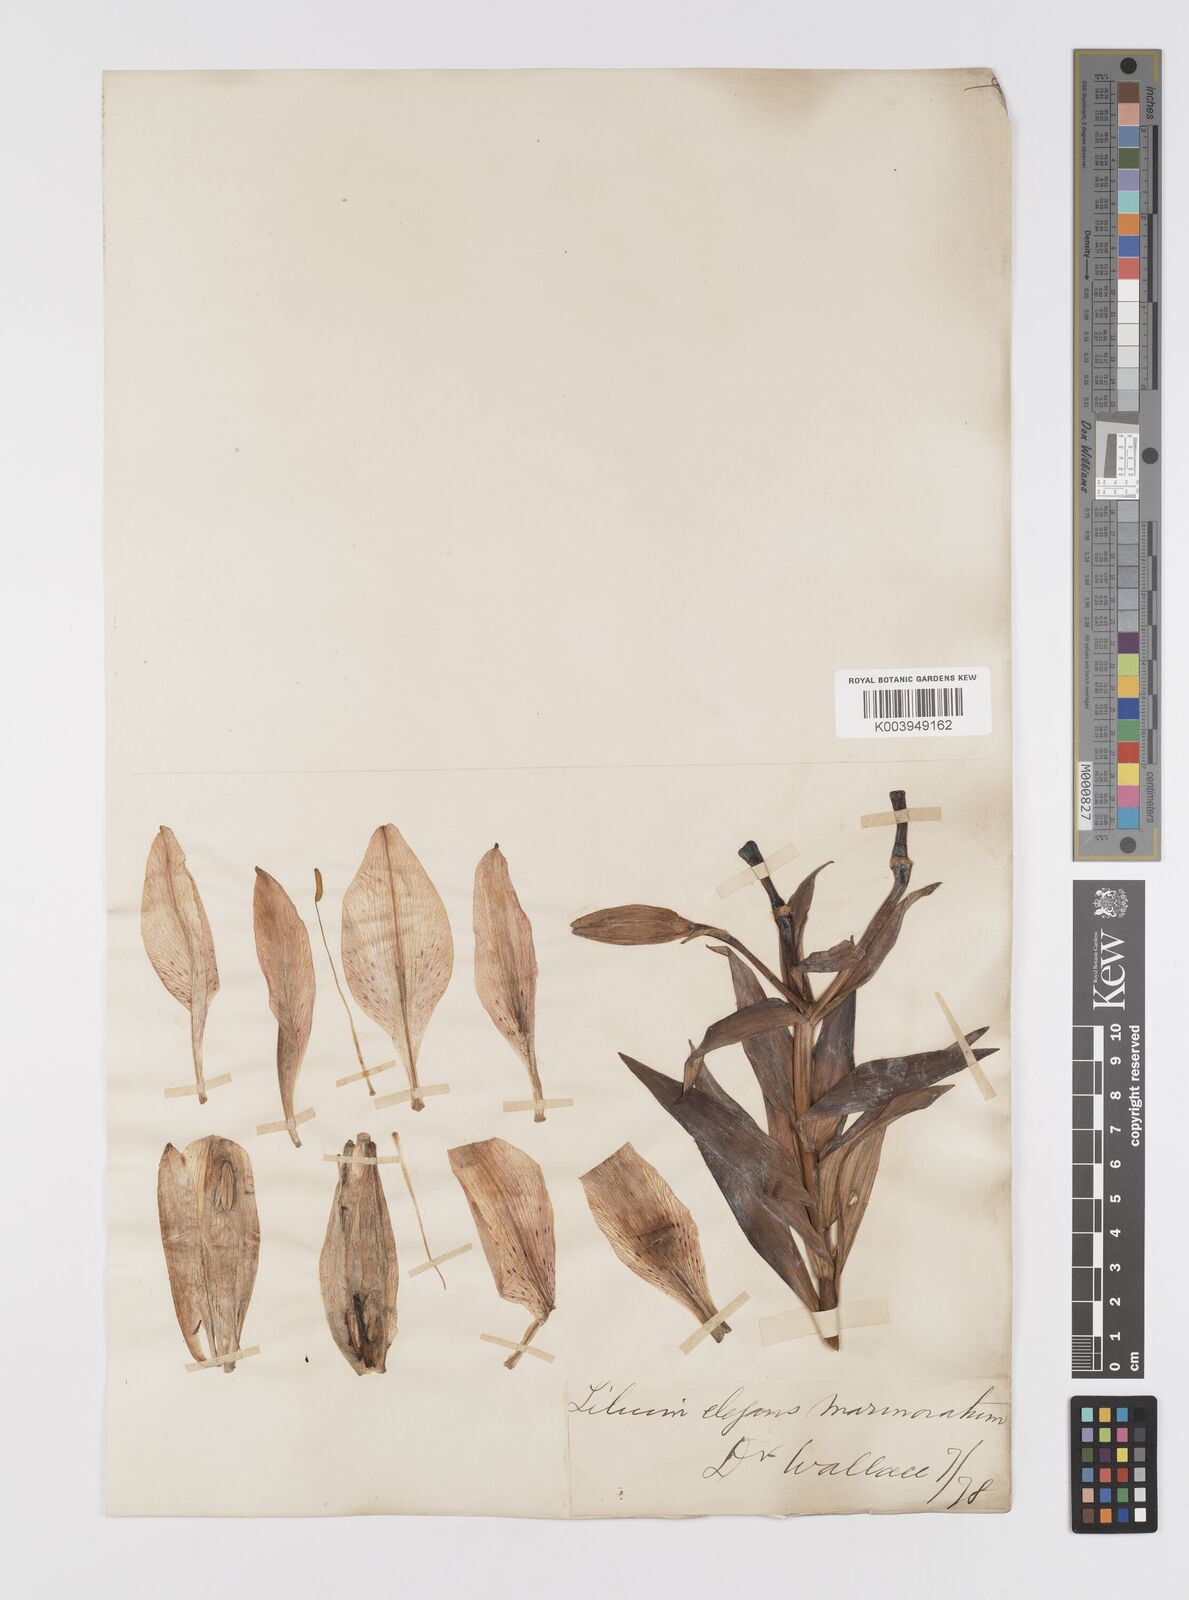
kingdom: Plantae
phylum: Tracheophyta
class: Liliopsida
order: Liliales
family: Liliaceae
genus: Lilium
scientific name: Lilium pensylvanicum
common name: Candlestick lily
